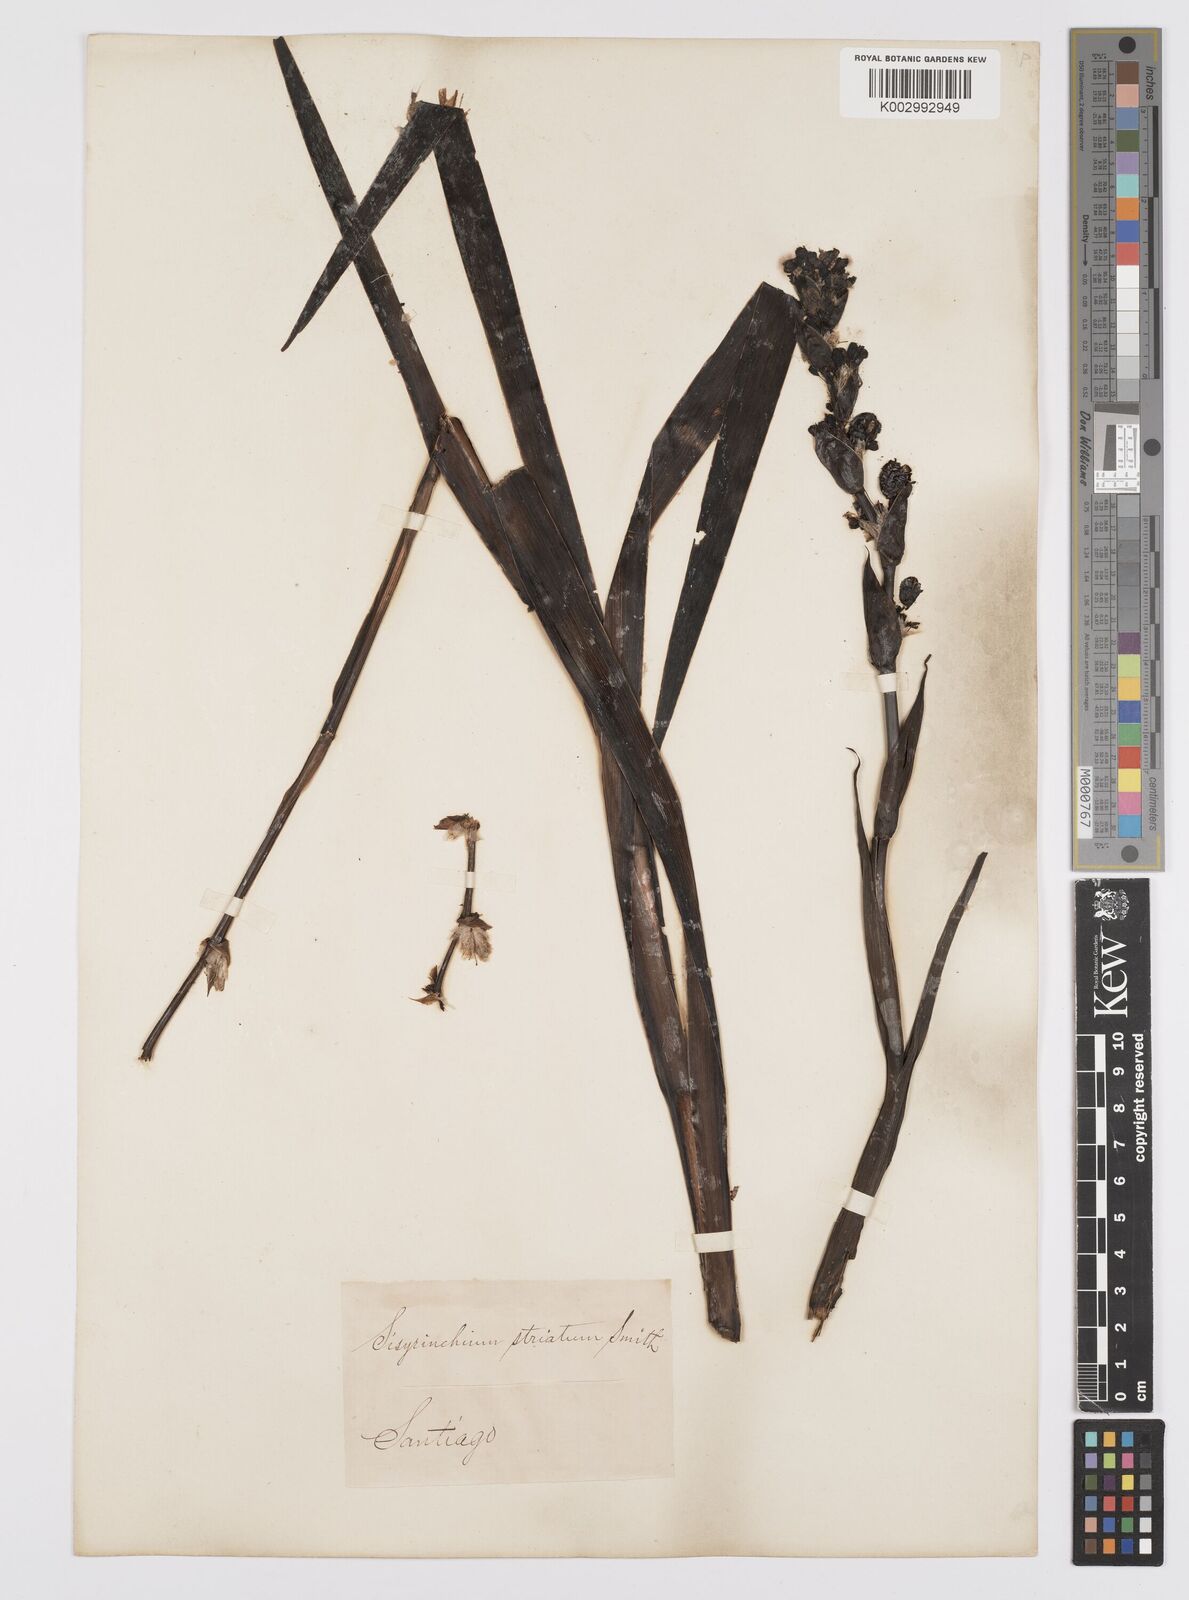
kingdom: Plantae
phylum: Tracheophyta
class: Liliopsida
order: Asparagales
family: Iridaceae
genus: Sisyrinchium
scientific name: Sisyrinchium striatum
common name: Pale yellow-eyed-grass
